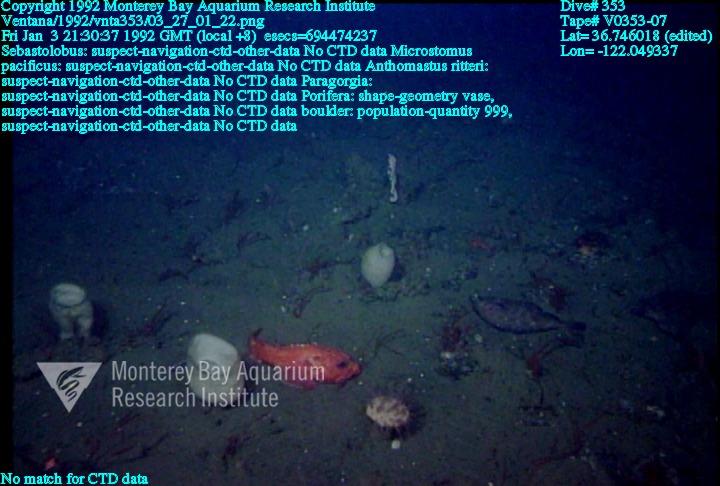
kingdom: Animalia
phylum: Porifera
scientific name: Porifera
